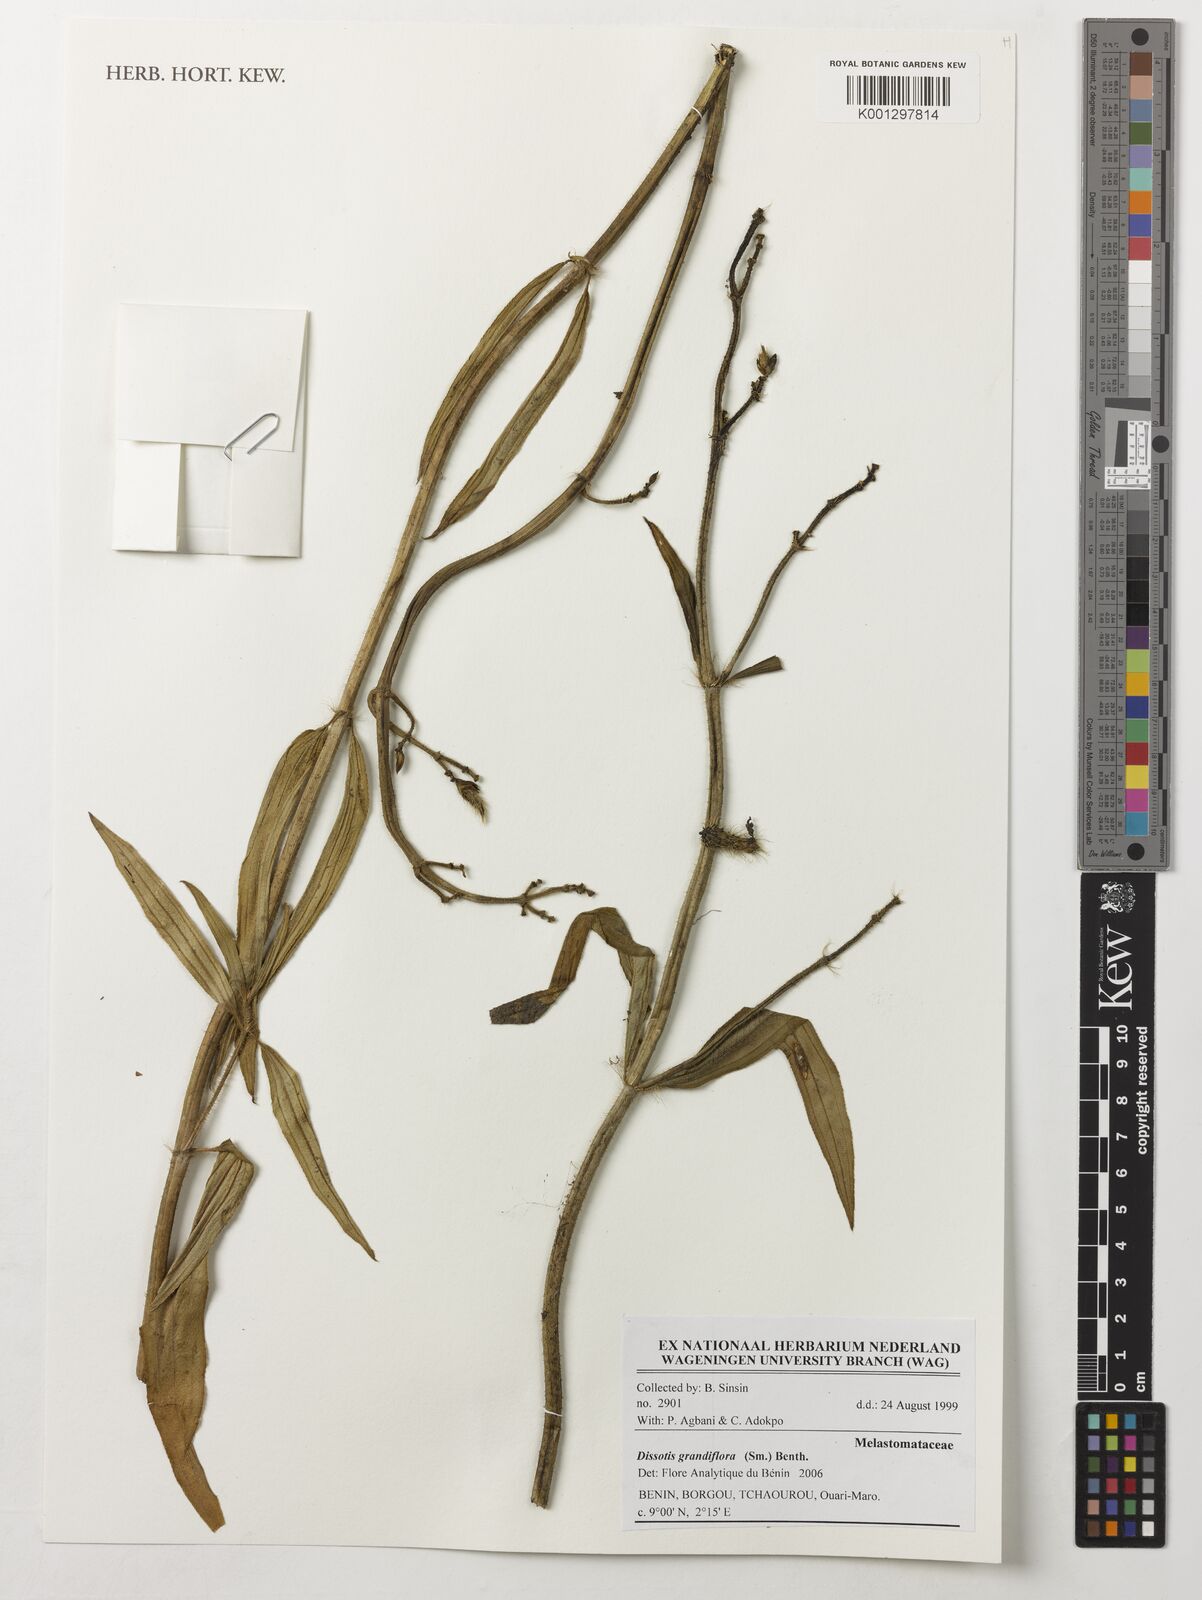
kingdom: Plantae
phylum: Tracheophyta
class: Magnoliopsida
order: Myrtales
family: Melastomataceae
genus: Dissotis
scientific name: Dissotis grandiflora
